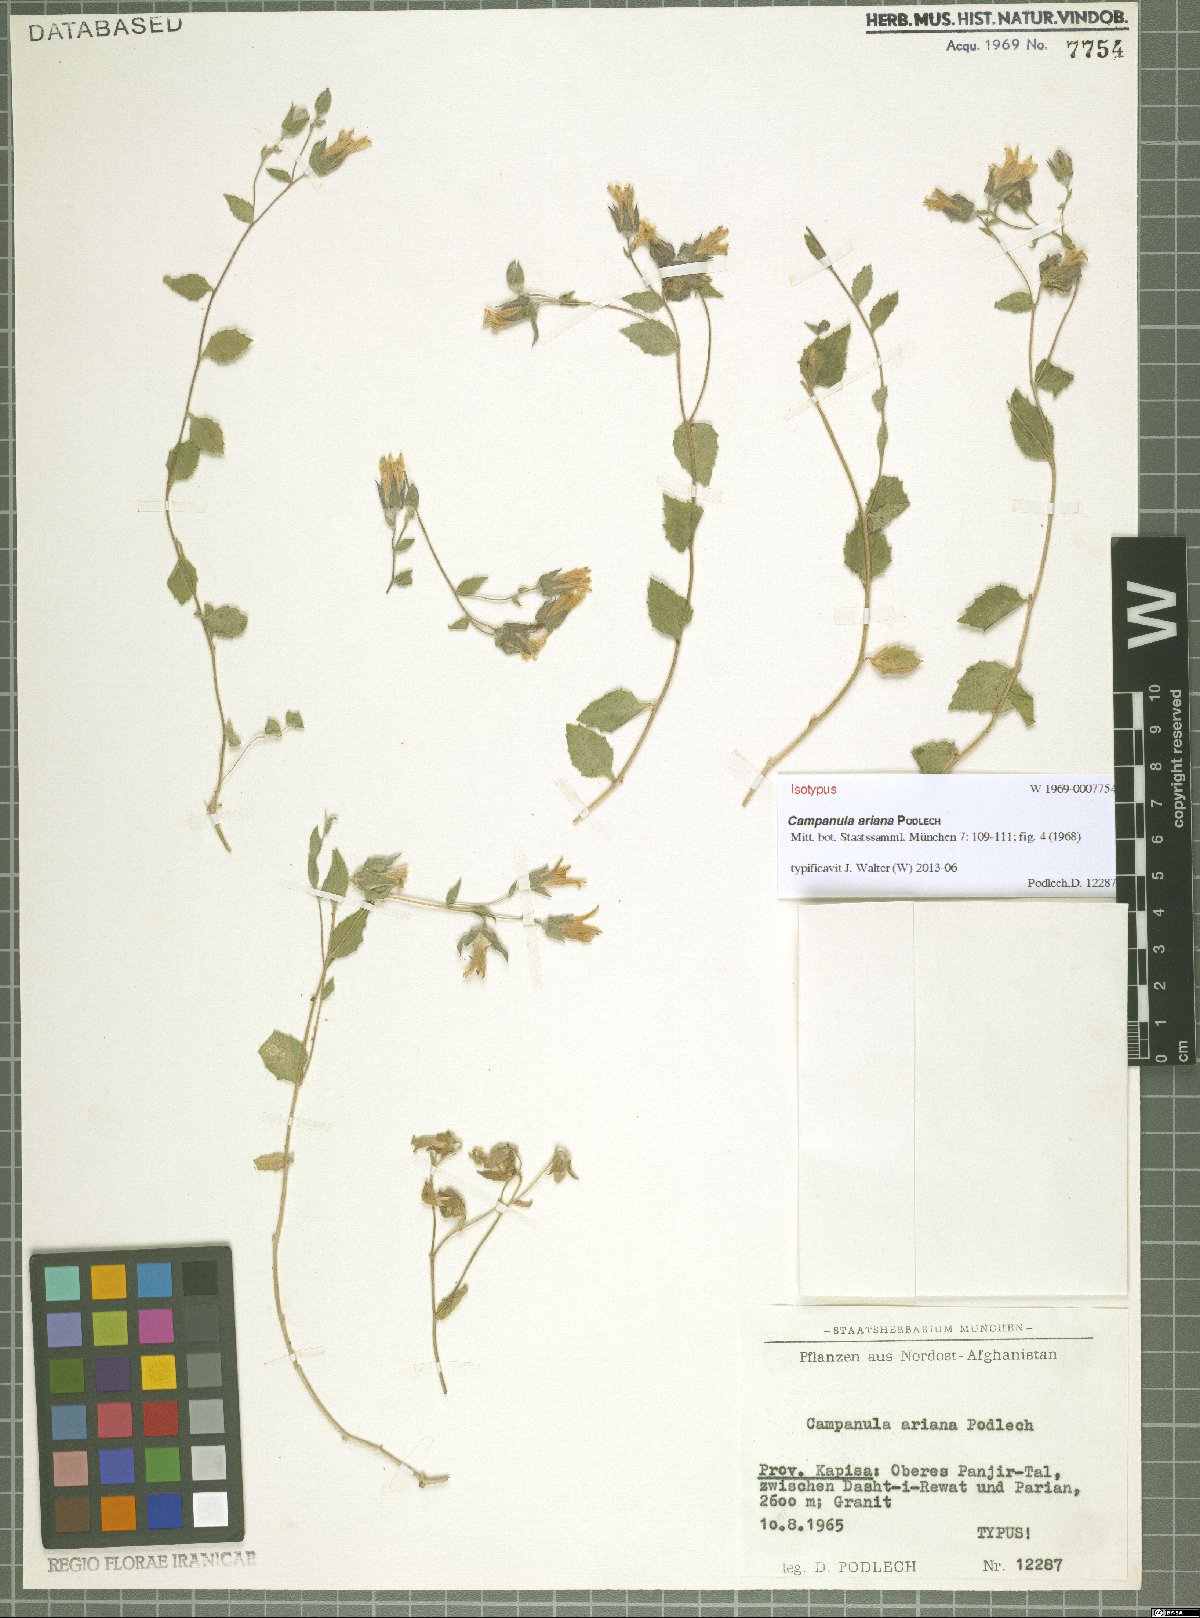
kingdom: Plantae
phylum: Tracheophyta
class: Magnoliopsida
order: Asterales
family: Campanulaceae
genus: Campanula
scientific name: Campanula ariana
